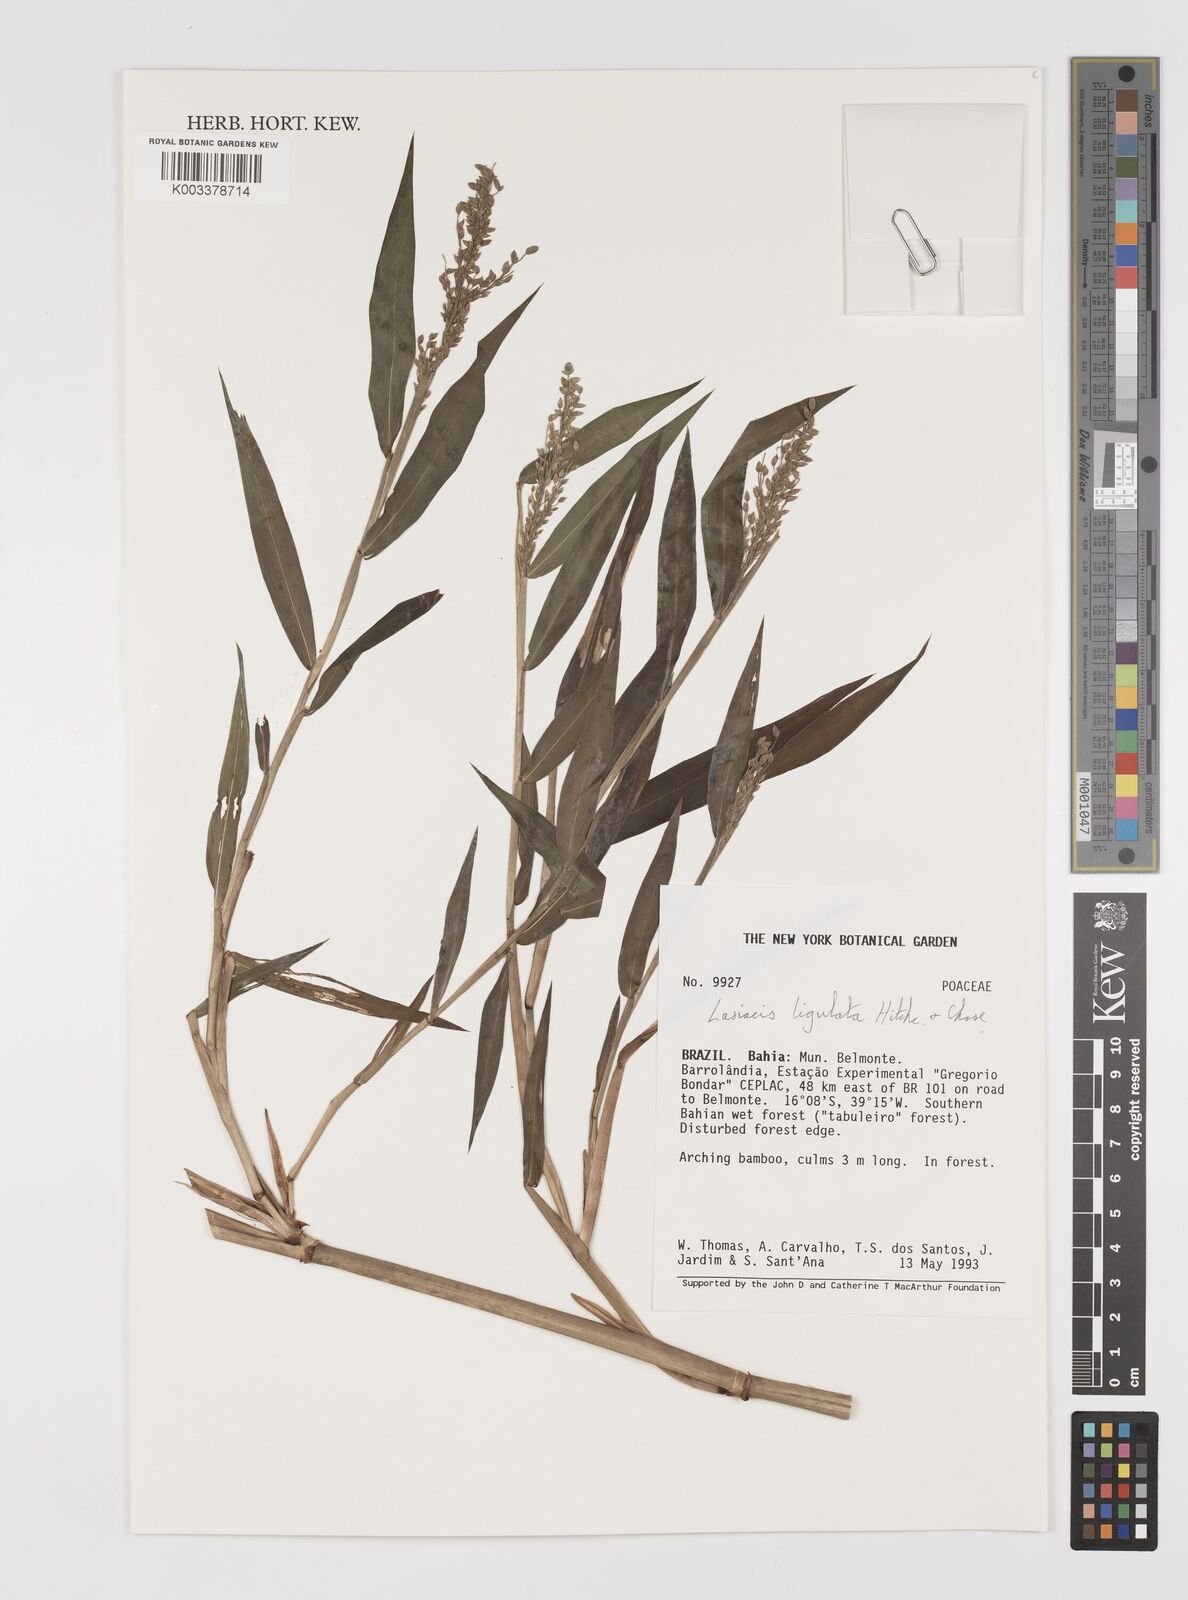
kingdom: Plantae
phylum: Tracheophyta
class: Liliopsida
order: Poales
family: Poaceae
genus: Lasiacis
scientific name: Lasiacis ligulata
